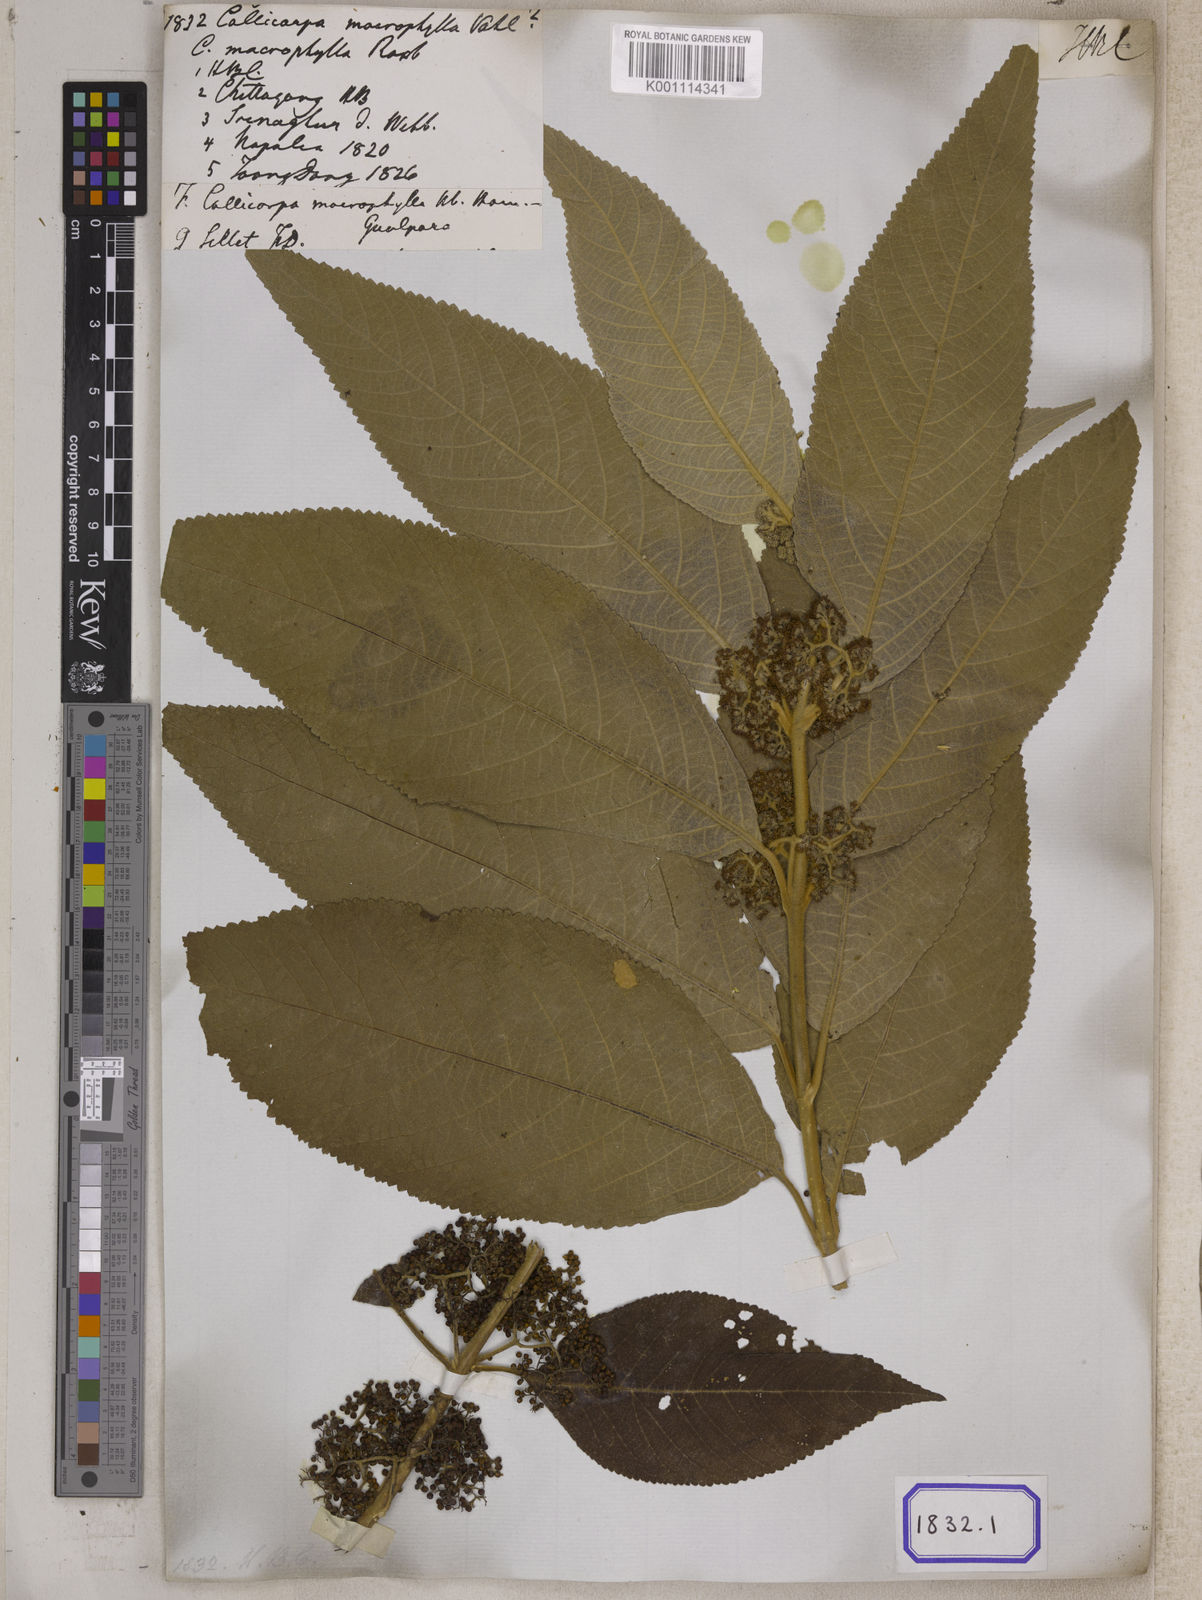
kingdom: Plantae
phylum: Tracheophyta
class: Magnoliopsida
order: Lamiales
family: Lamiaceae
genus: Callicarpa
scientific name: Callicarpa macrophylla
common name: Urn-fruit beauty-berry
